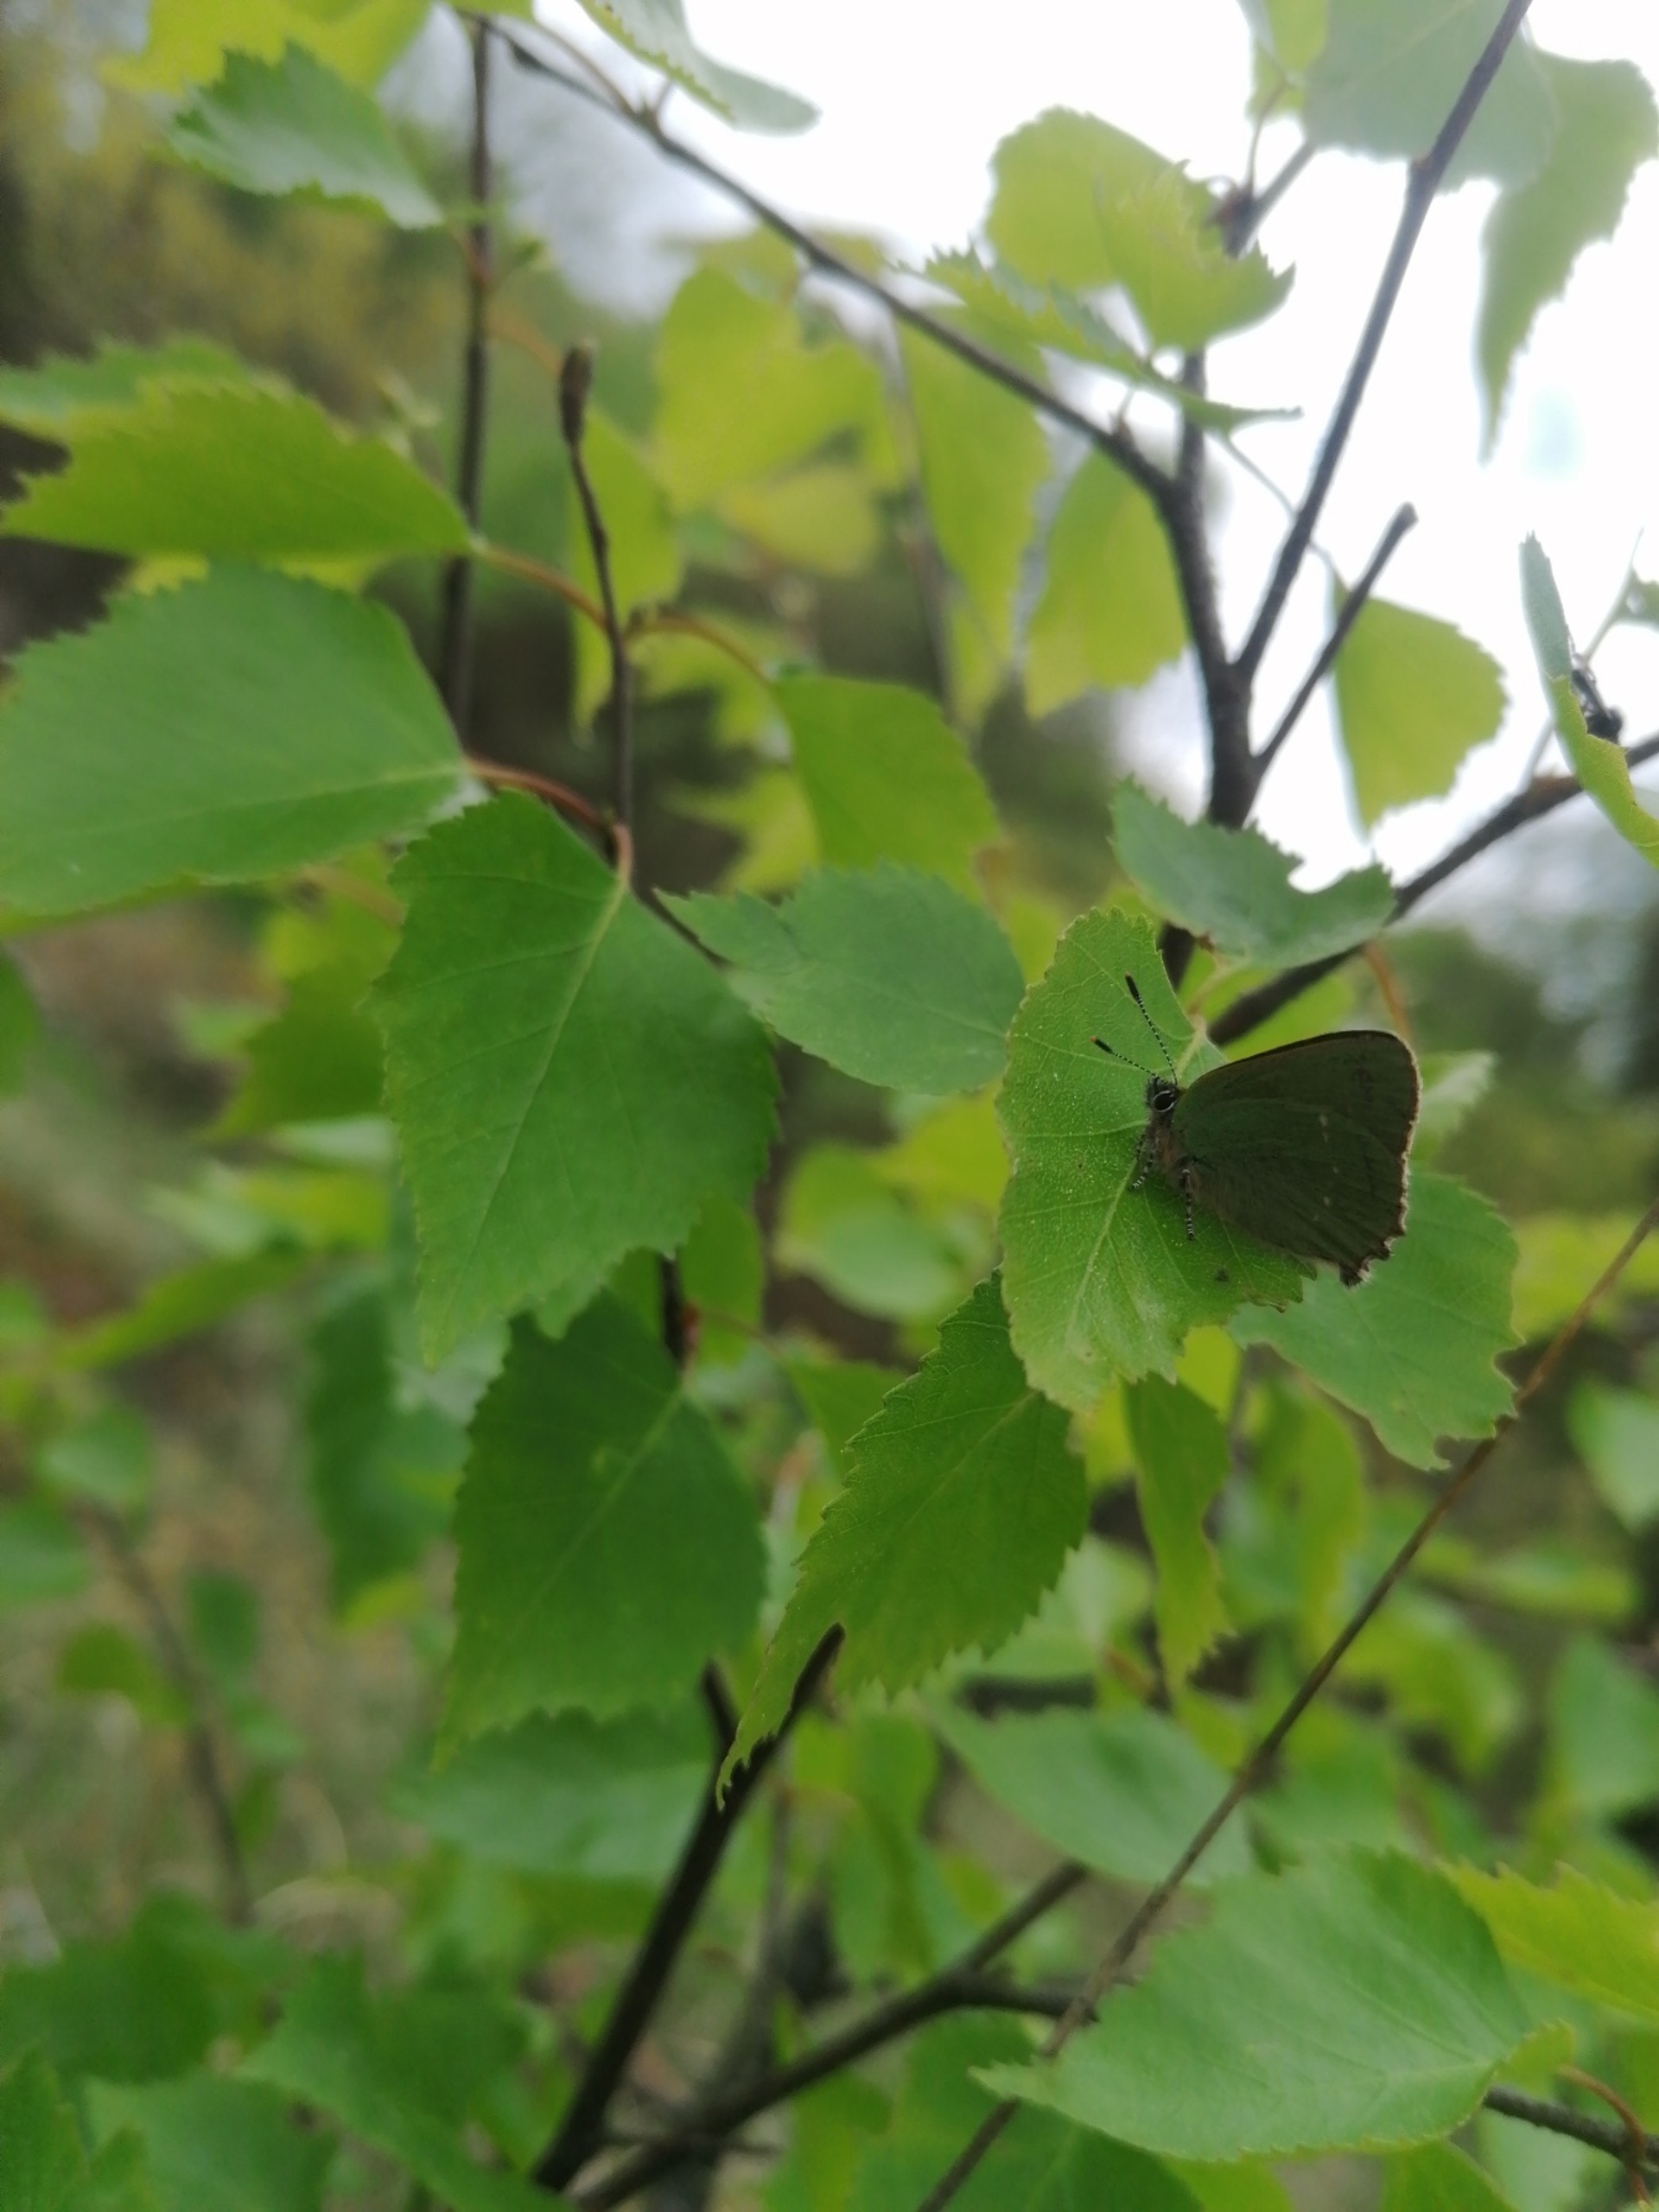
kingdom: Animalia
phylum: Arthropoda
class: Insecta
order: Lepidoptera
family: Lycaenidae
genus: Callophrys
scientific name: Callophrys rubi
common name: Grøn busksommerfugl
